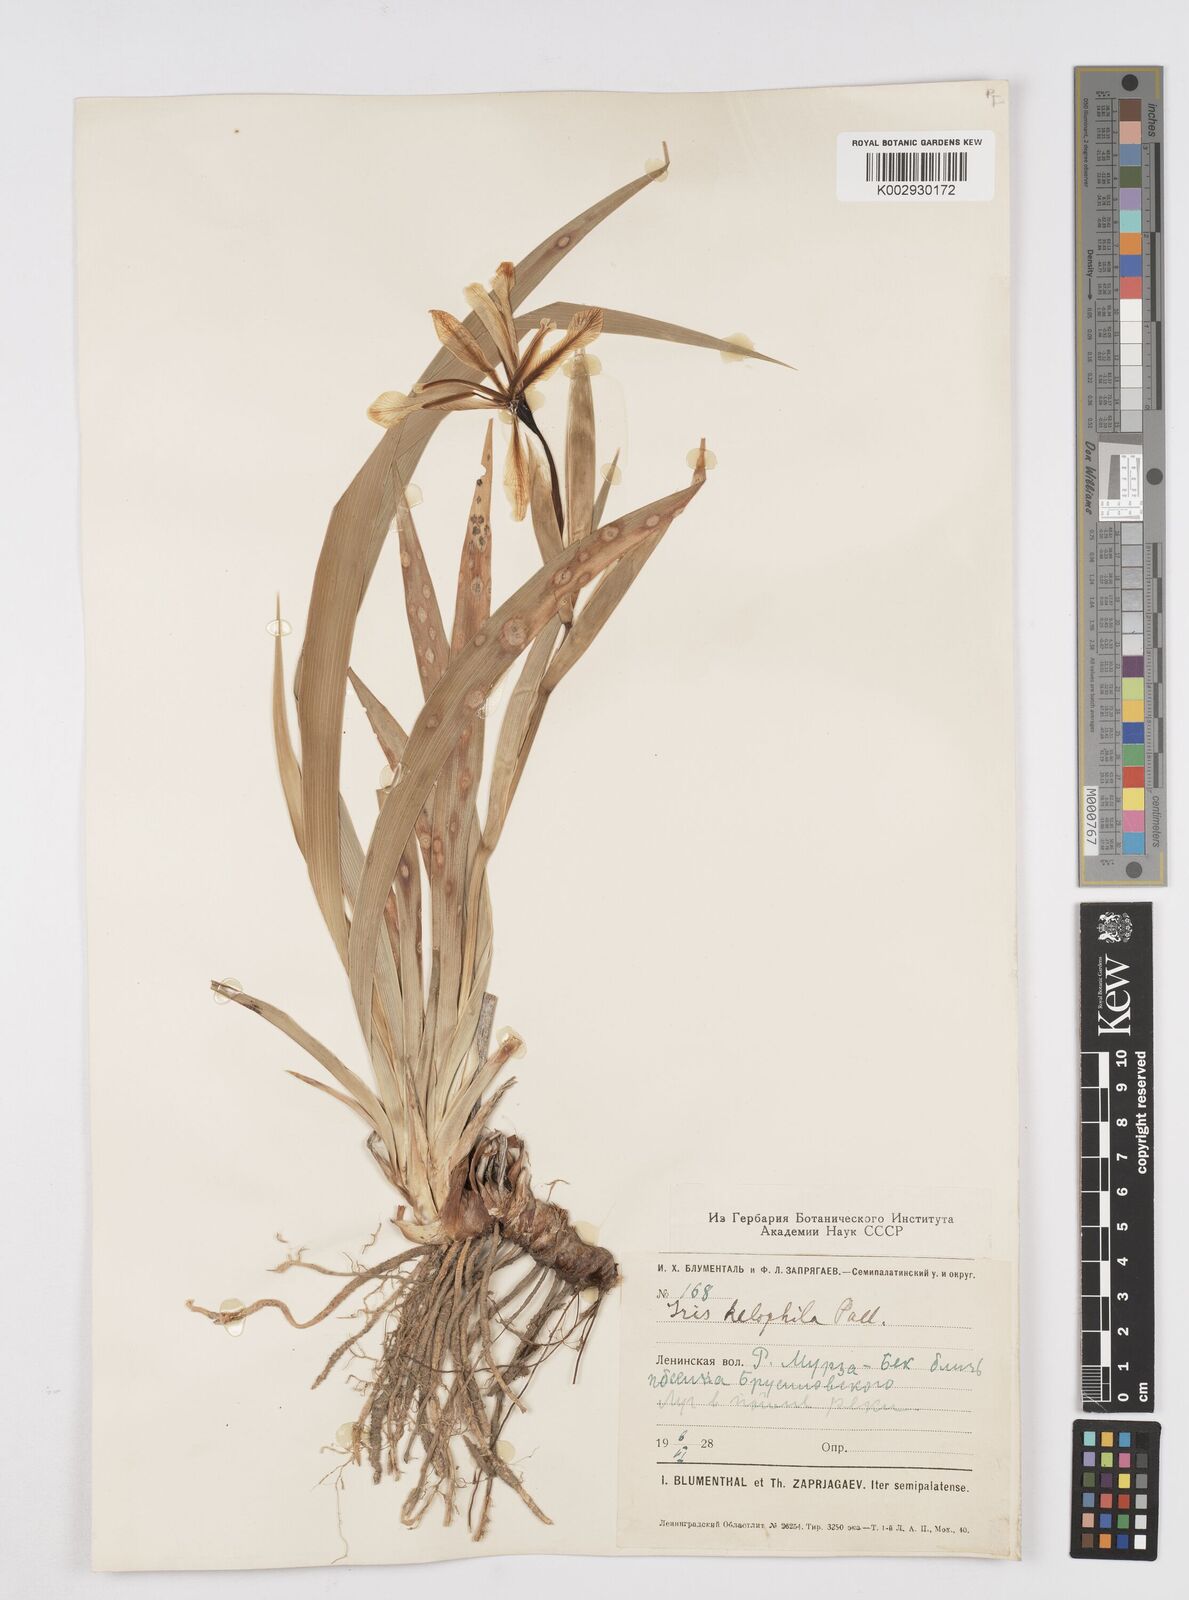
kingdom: Plantae
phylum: Tracheophyta
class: Liliopsida
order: Asparagales
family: Iridaceae
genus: Iris
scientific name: Iris halophila
